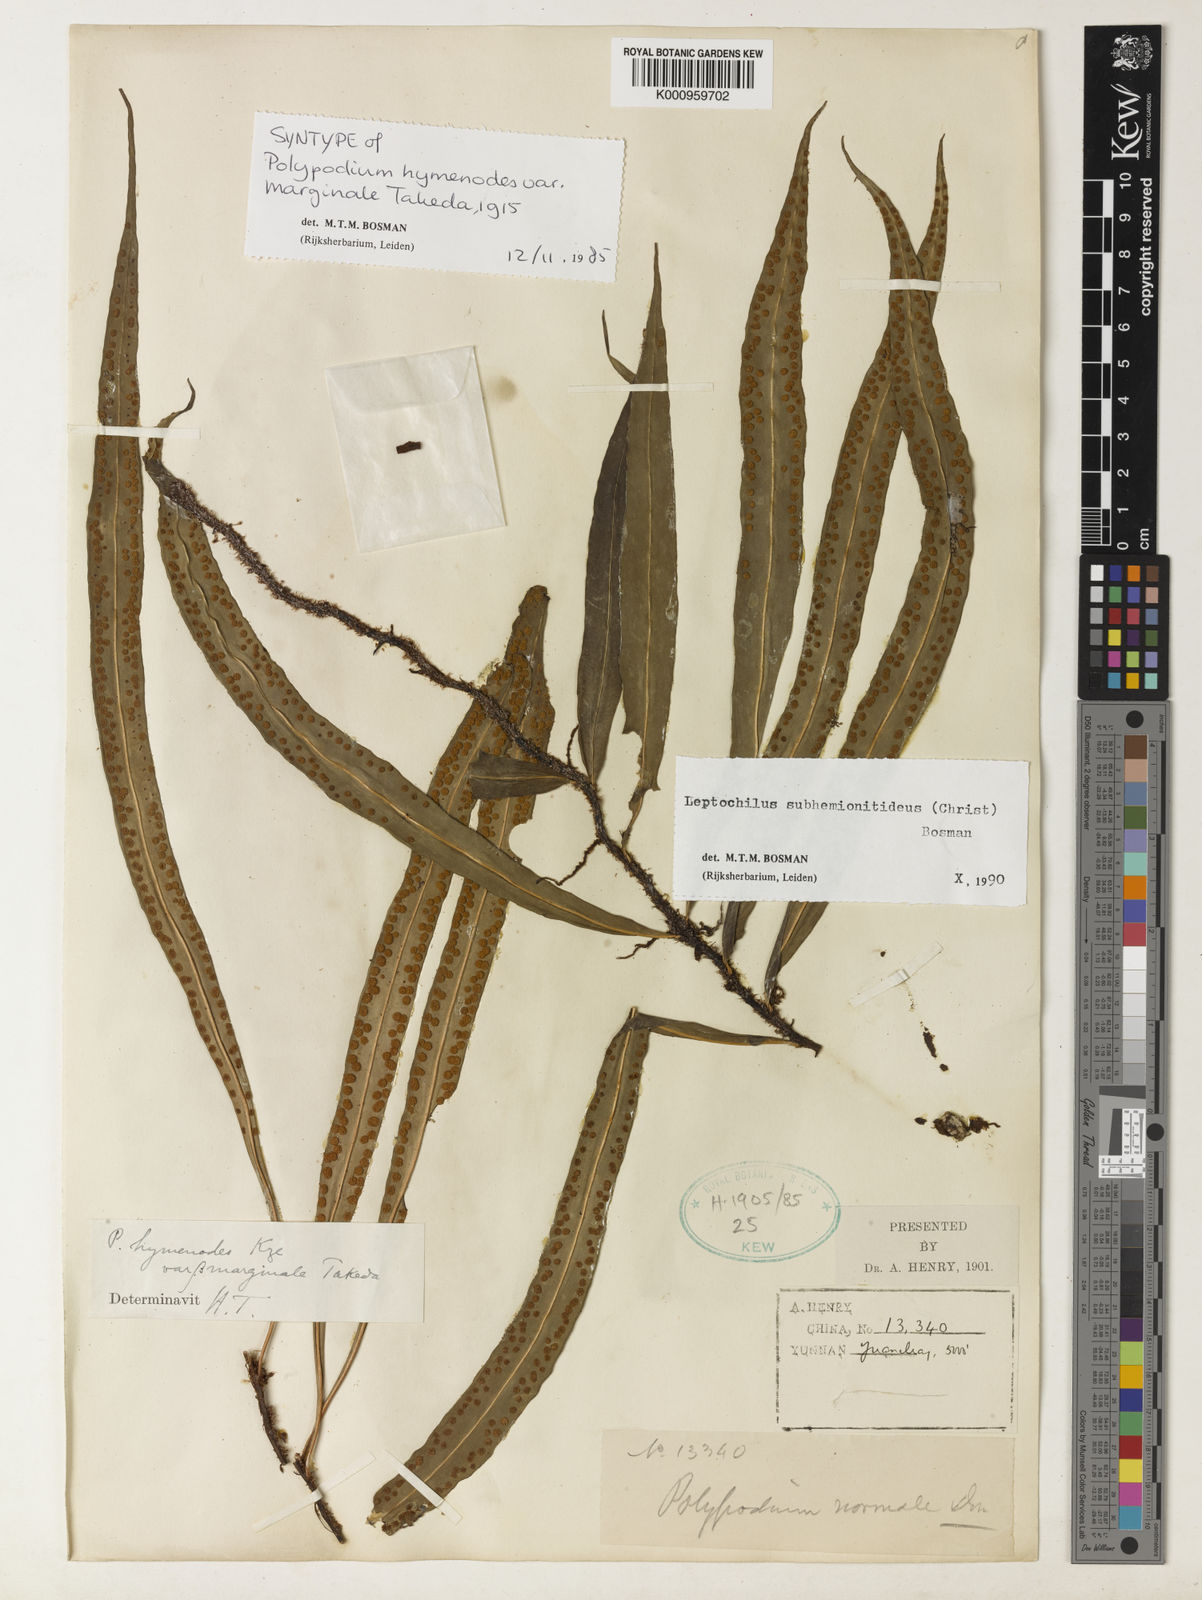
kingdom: Plantae
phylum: Tracheophyta
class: Polypodiopsida
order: Polypodiales
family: Polypodiaceae
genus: Bosmania
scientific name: Bosmania membranacea
